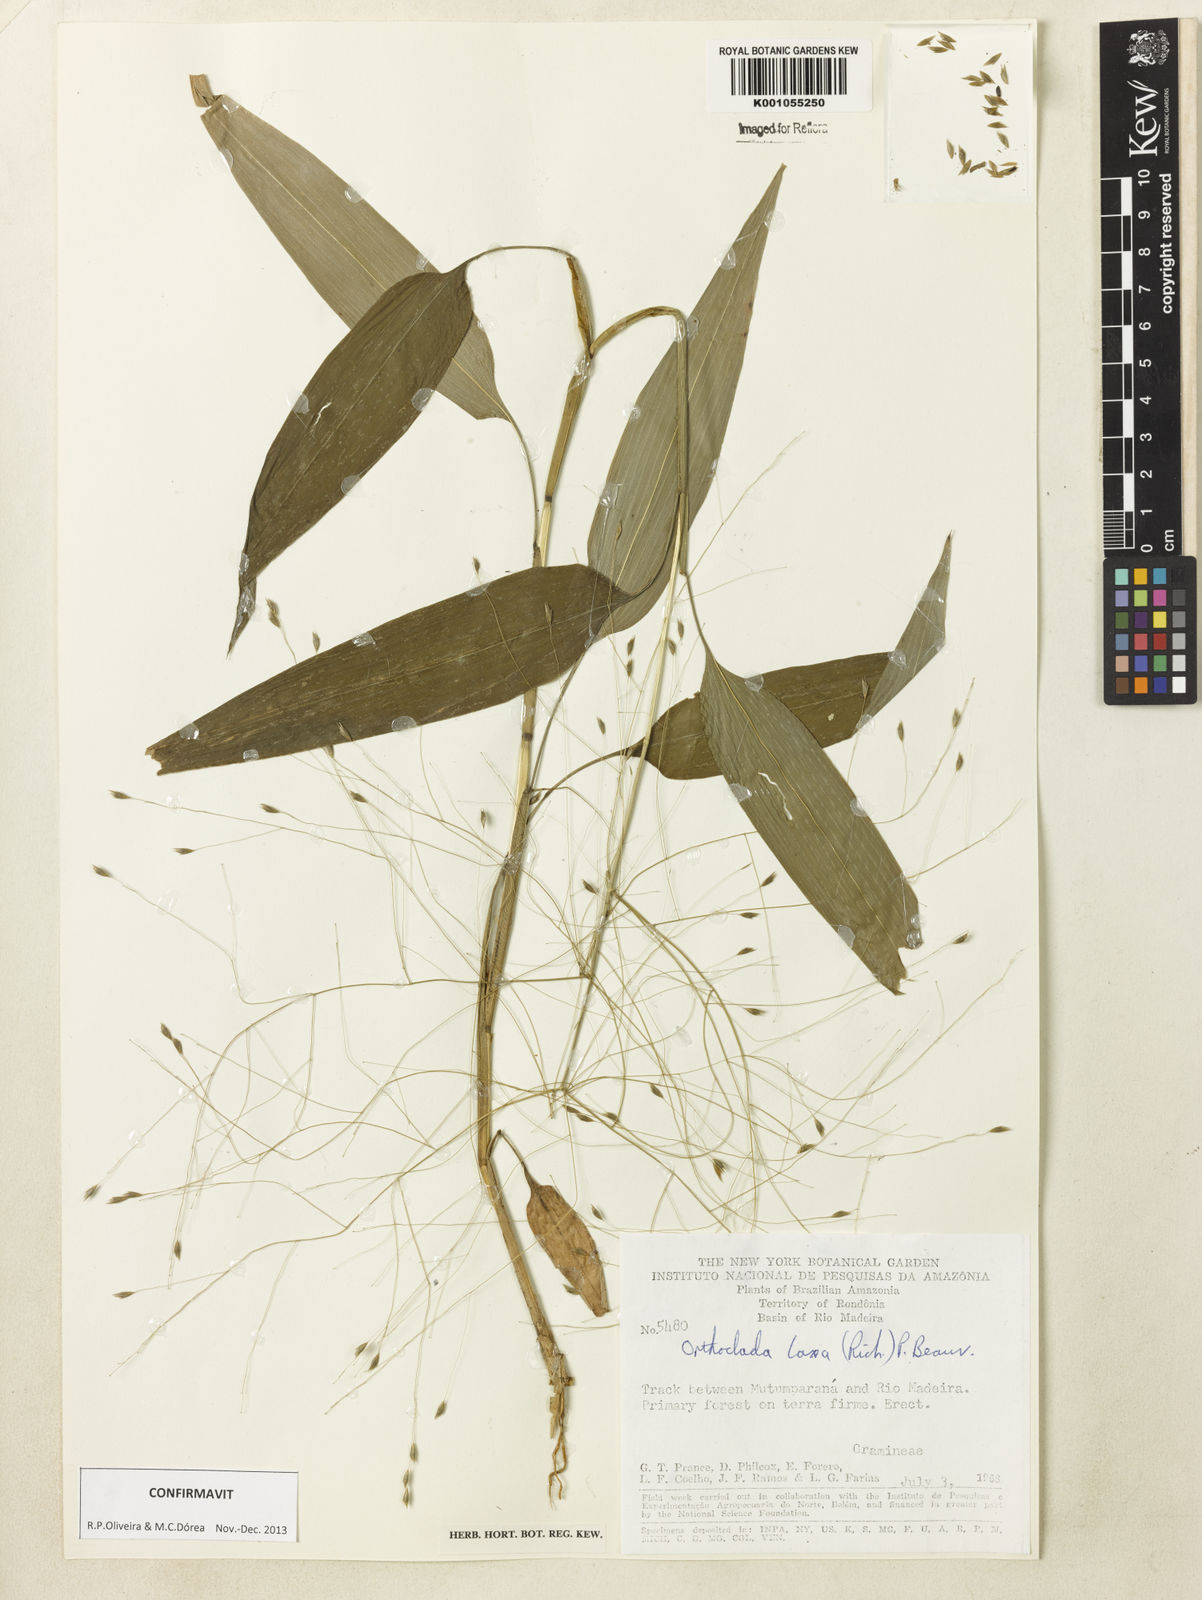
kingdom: Plantae
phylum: Tracheophyta
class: Liliopsida
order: Poales
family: Poaceae
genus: Orthoclada
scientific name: Orthoclada laxa
